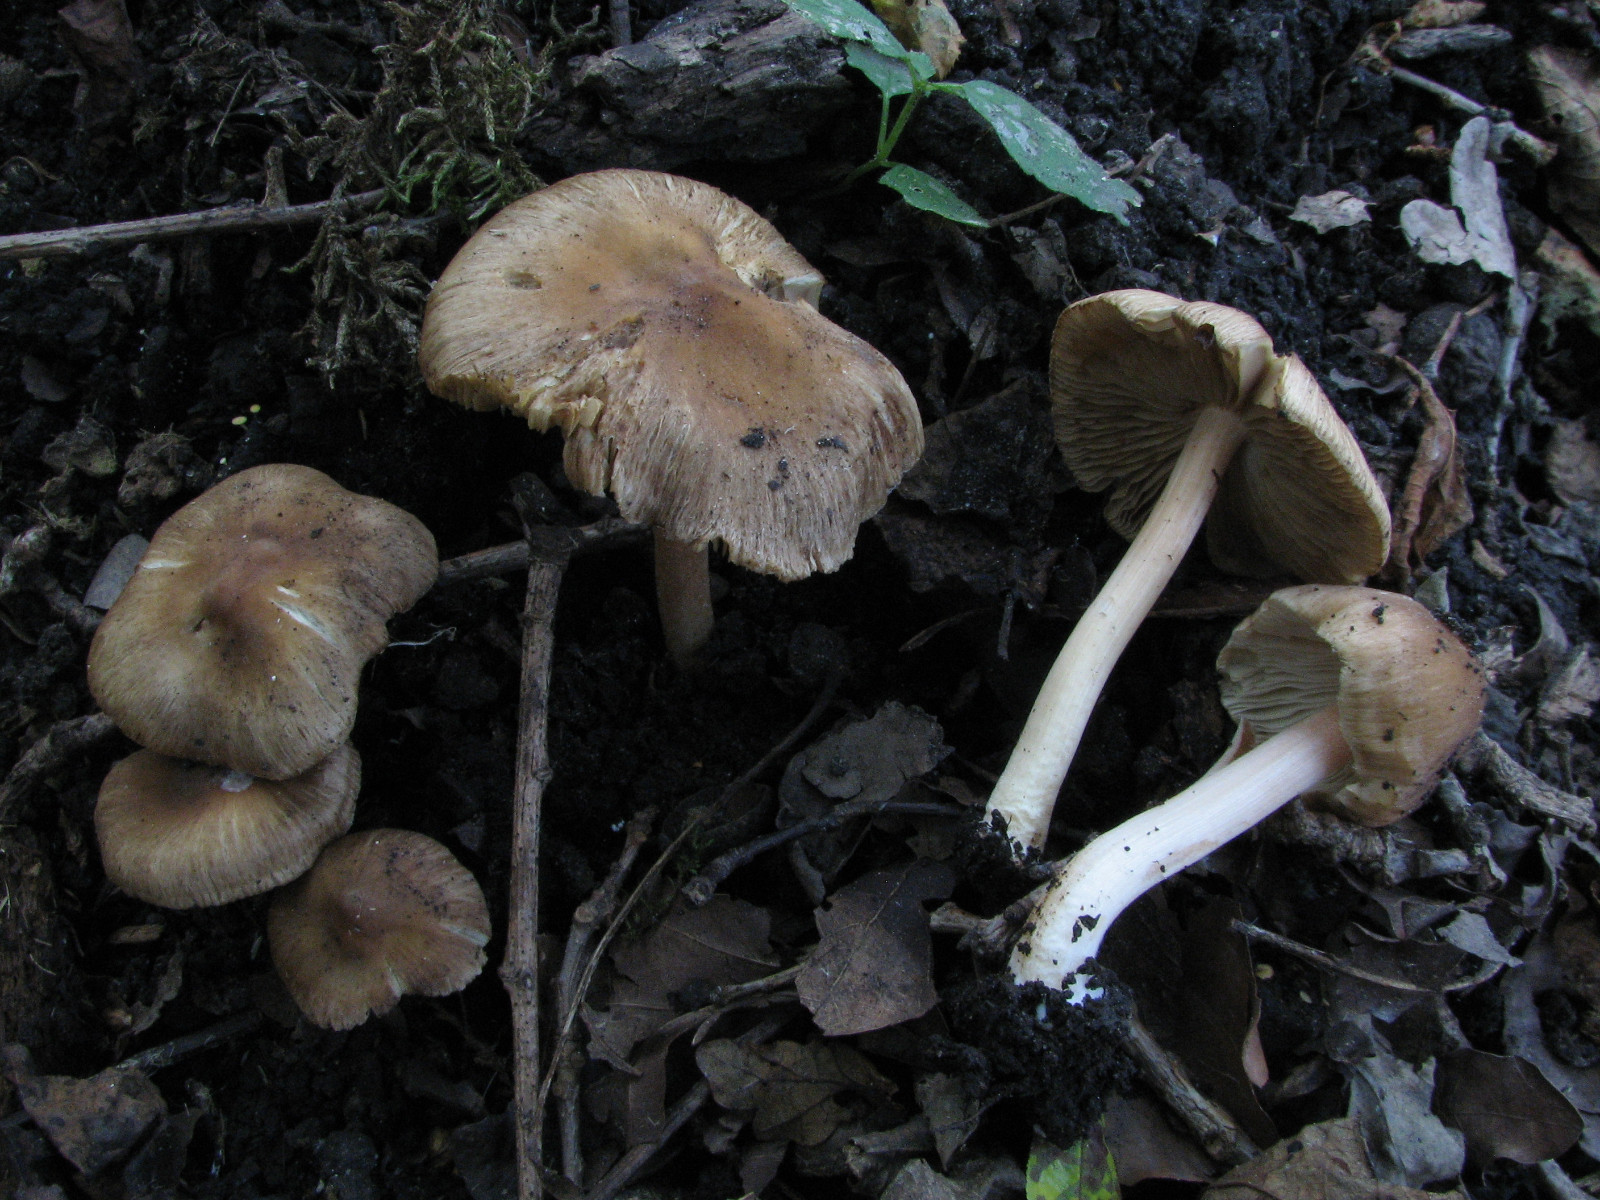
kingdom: Fungi
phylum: Basidiomycota
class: Agaricomycetes
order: Agaricales
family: Inocybaceae
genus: Inocybe
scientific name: Inocybe fuligineoatra
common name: brunsort trævlhat
